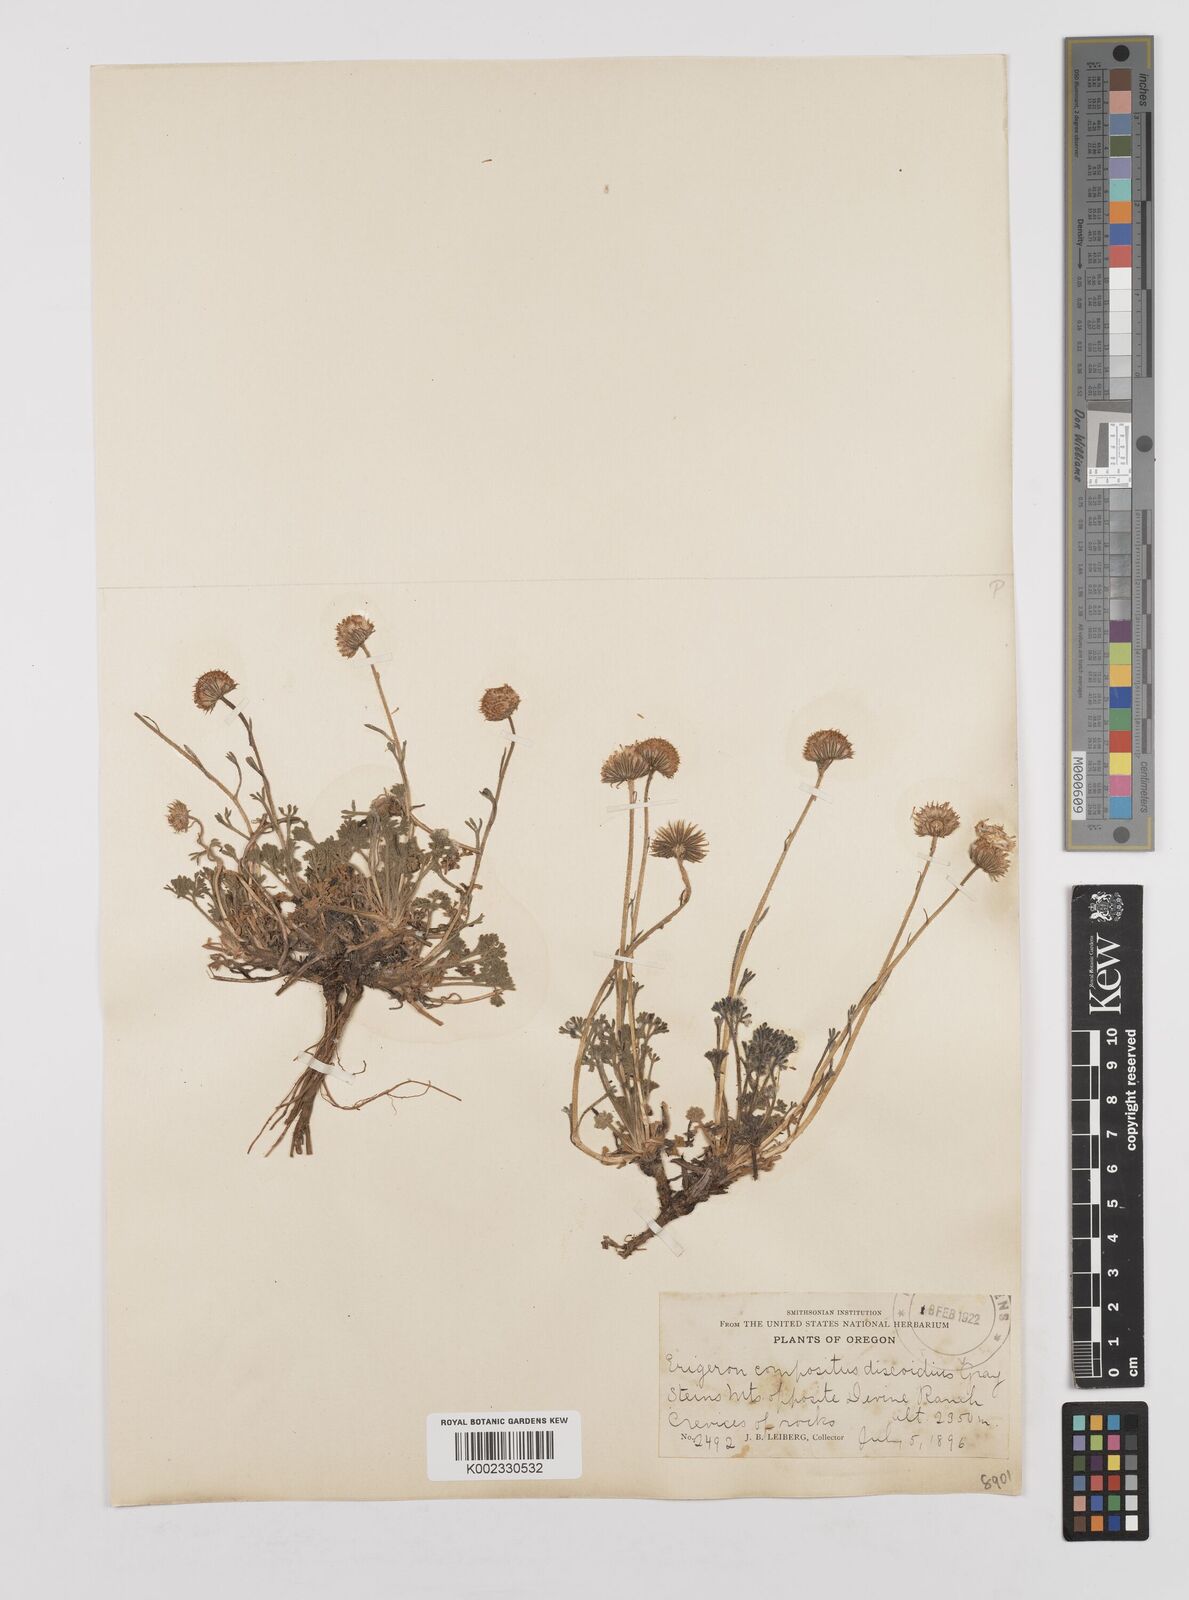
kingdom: Plantae
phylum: Tracheophyta
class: Magnoliopsida
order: Asterales
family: Asteraceae
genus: Erigeron
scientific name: Erigeron compositus
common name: Dwarf mountain fleabane
